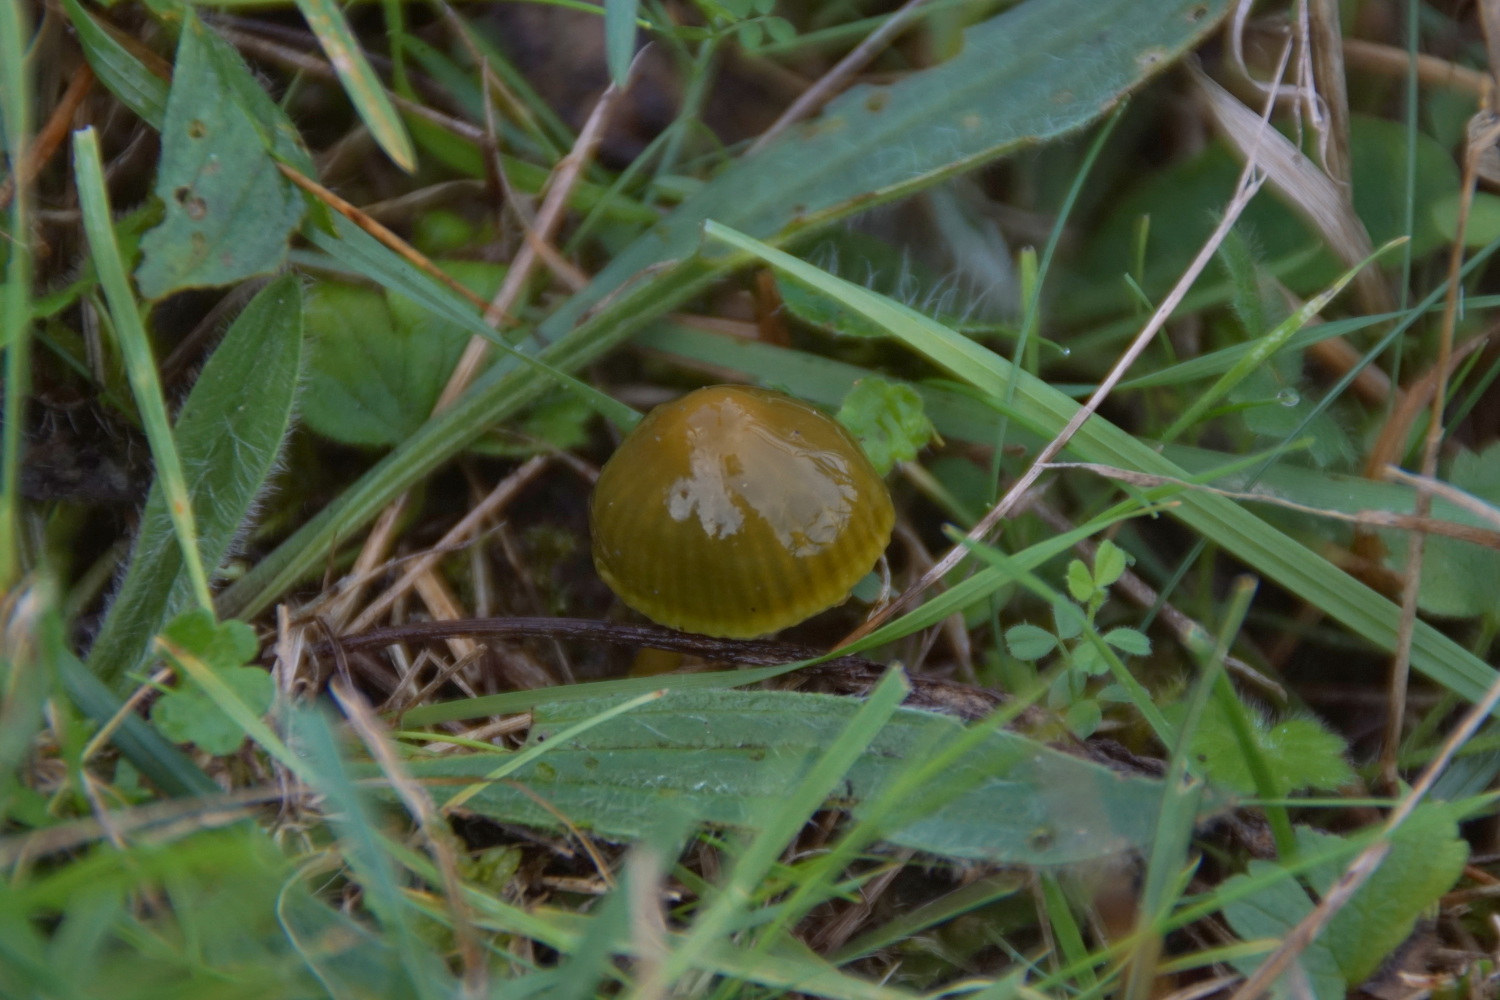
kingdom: Fungi
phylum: Basidiomycota
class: Agaricomycetes
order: Agaricales
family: Hygrophoraceae
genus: Gliophorus
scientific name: Gliophorus psittacinus
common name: papegøje-vokshat
